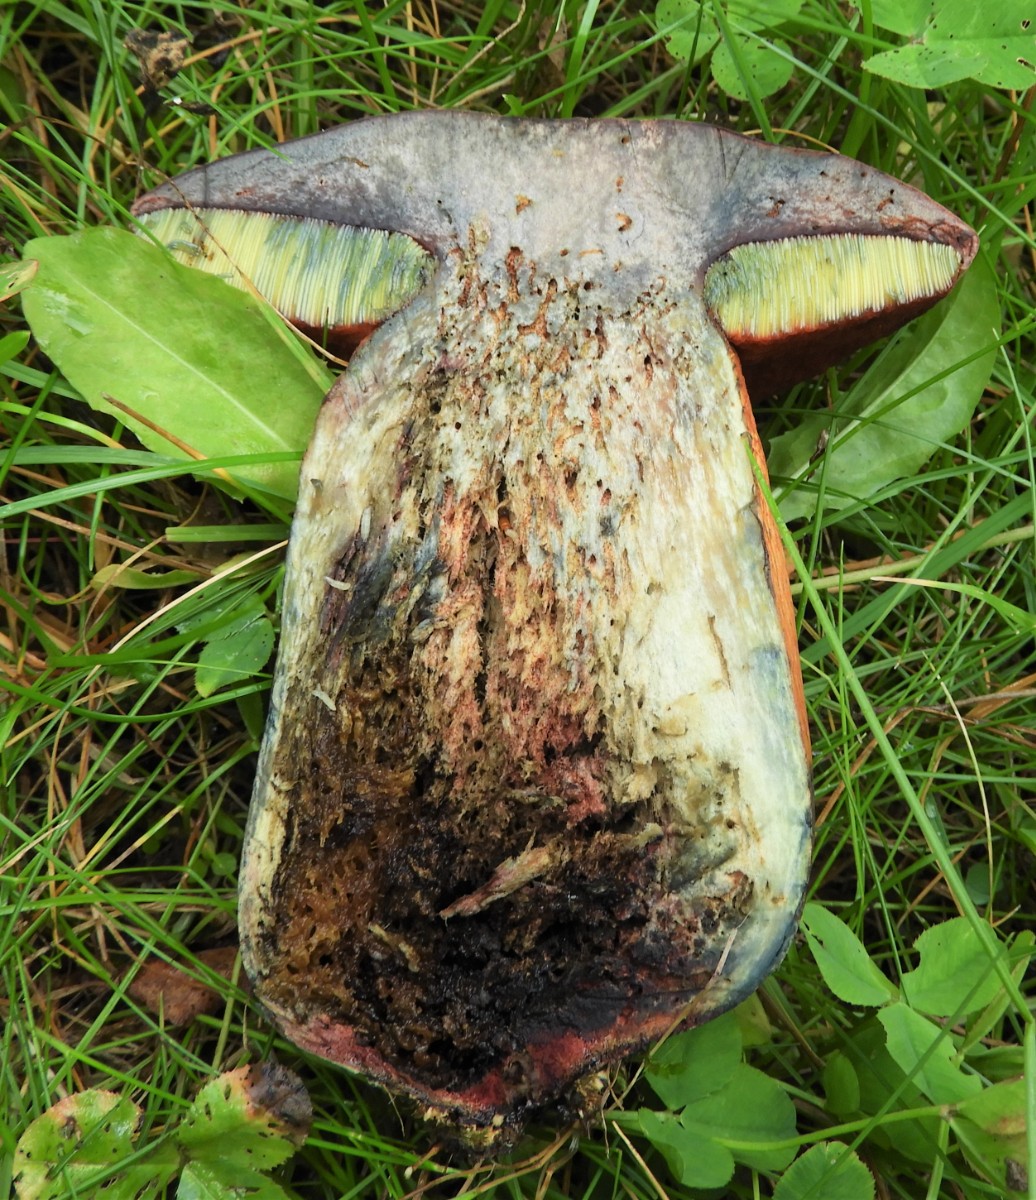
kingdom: Fungi
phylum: Basidiomycota
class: Agaricomycetes
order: Boletales
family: Boletaceae
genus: Suillellus
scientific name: Suillellus luridus
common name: netstokket indigorørhat
